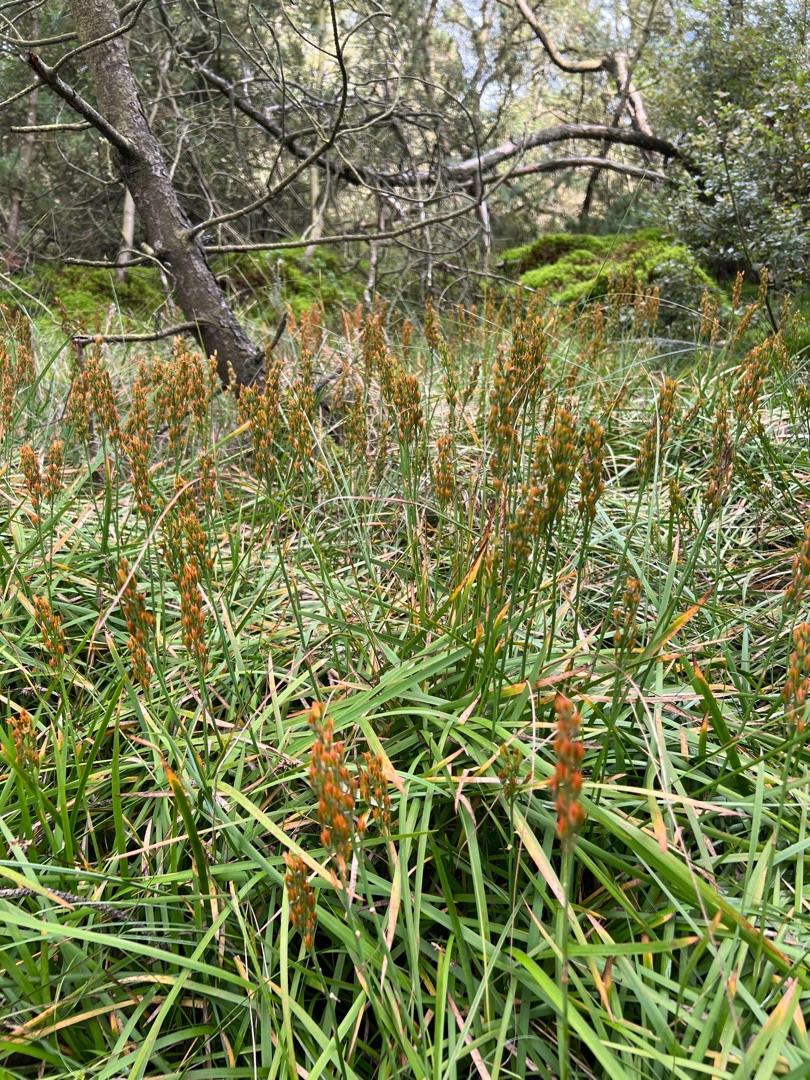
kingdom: Plantae
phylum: Tracheophyta
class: Liliopsida
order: Dioscoreales
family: Nartheciaceae
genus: Narthecium
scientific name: Narthecium ossifragum
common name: Benbræk
